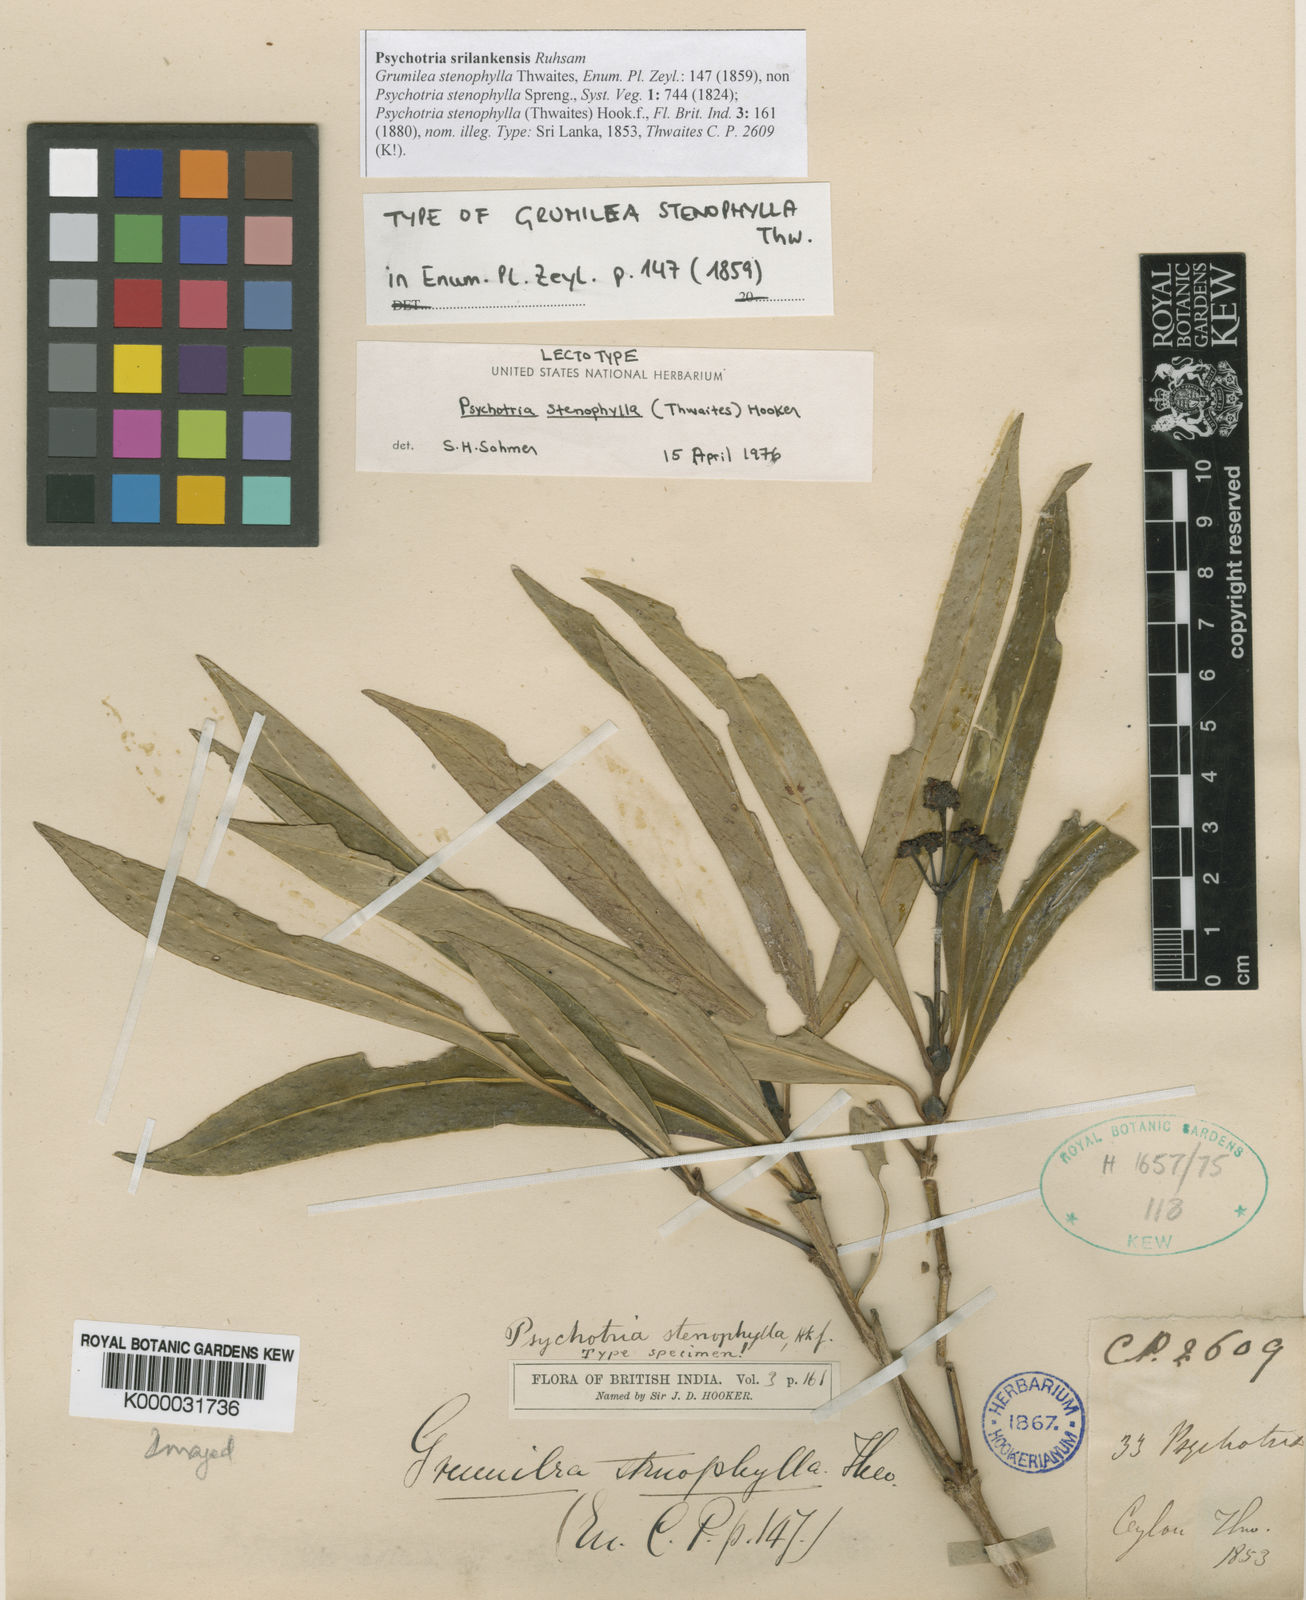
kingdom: Plantae
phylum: Tracheophyta
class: Magnoliopsida
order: Gentianales
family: Rubiaceae
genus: Psychotria
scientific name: Psychotria srilankensis
